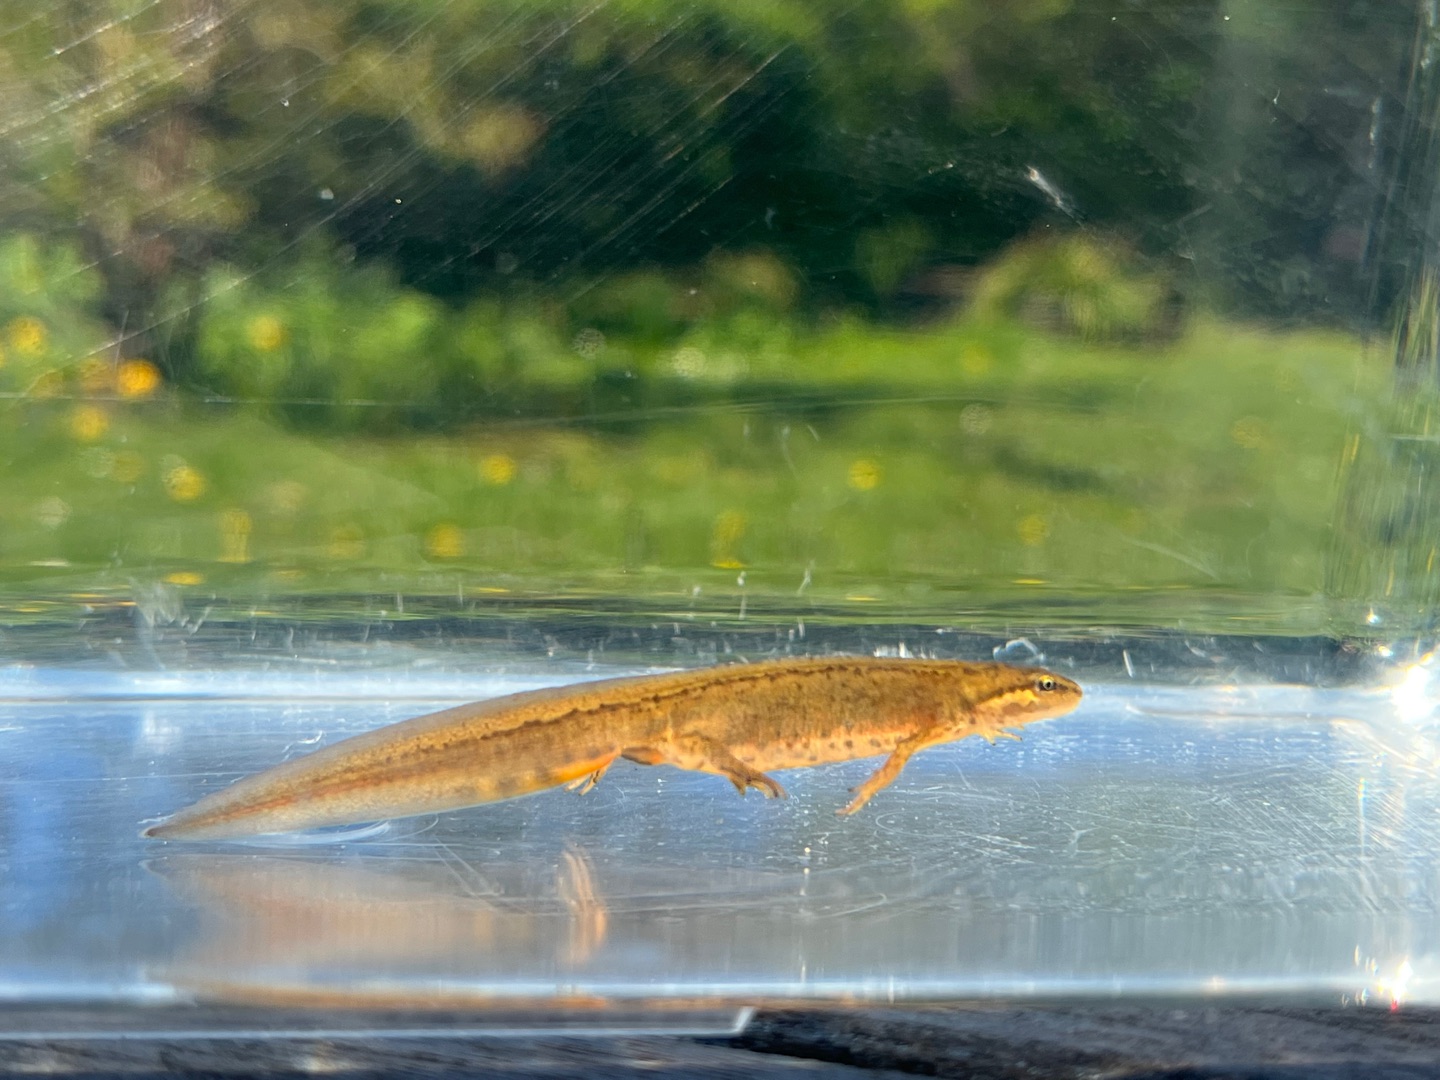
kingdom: Animalia
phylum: Chordata
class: Amphibia
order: Caudata
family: Salamandridae
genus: Lissotriton
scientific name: Lissotriton vulgaris
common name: Lille vandsalamander
